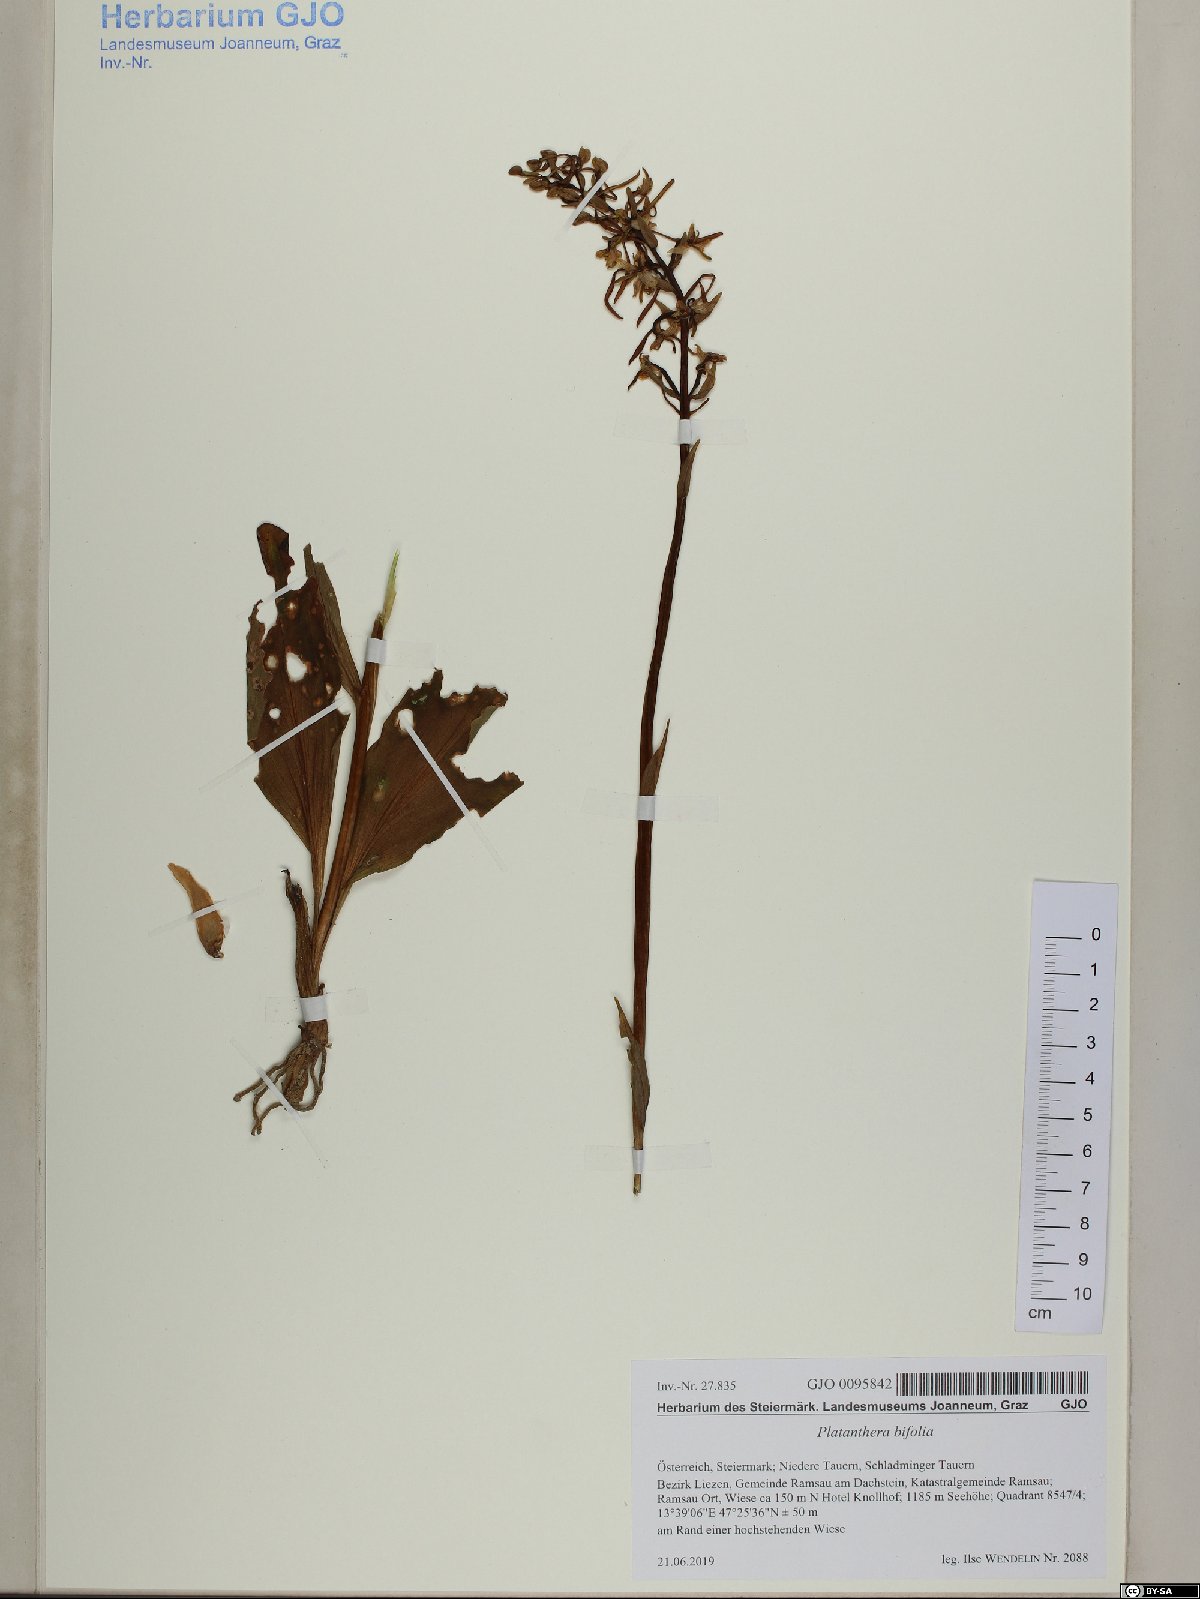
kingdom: Plantae
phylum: Tracheophyta
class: Liliopsida
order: Asparagales
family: Orchidaceae
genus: Platanthera
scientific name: Platanthera bifolia
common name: Lesser butterfly-orchid
